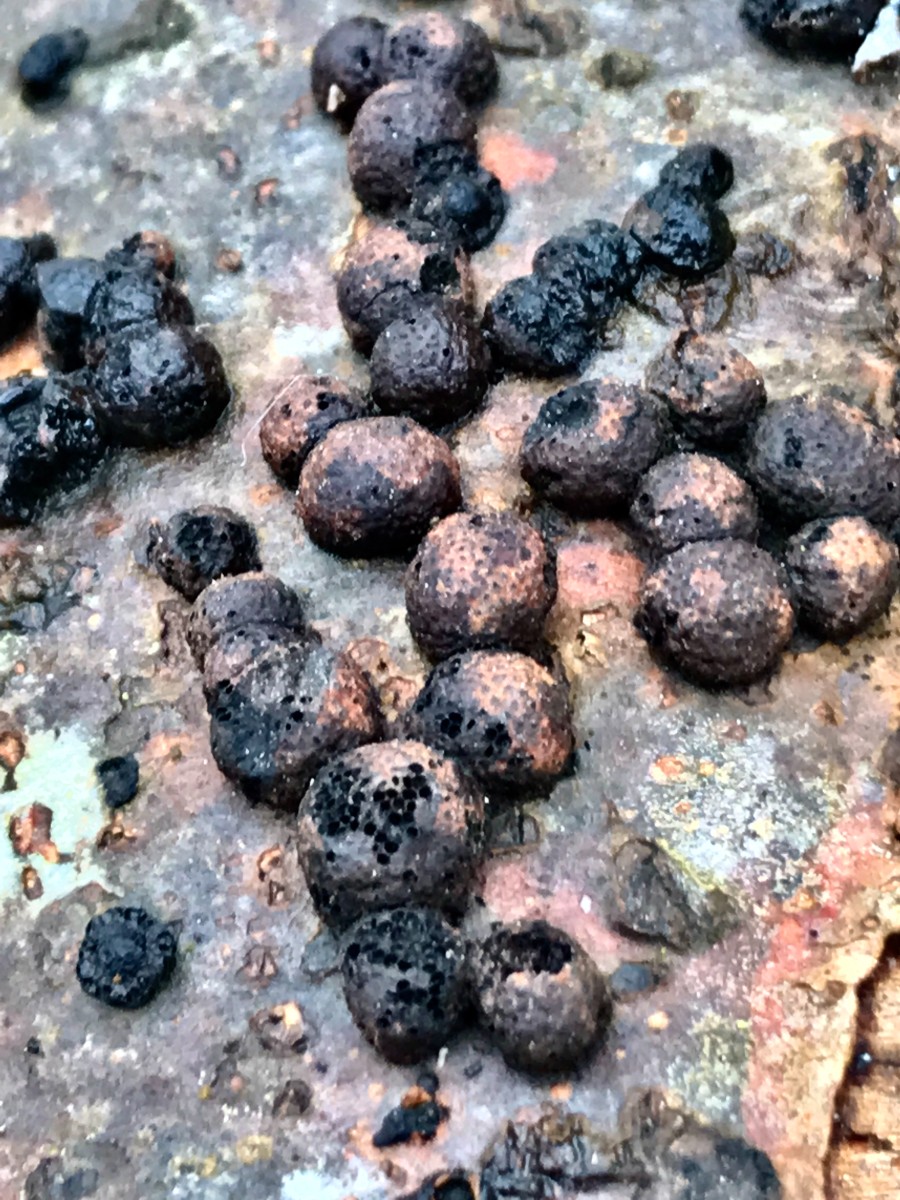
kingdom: Fungi
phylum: Ascomycota
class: Sordariomycetes
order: Xylariales
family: Hypoxylaceae
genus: Hypoxylon
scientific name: Hypoxylon fragiforme
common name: kuljordbær
